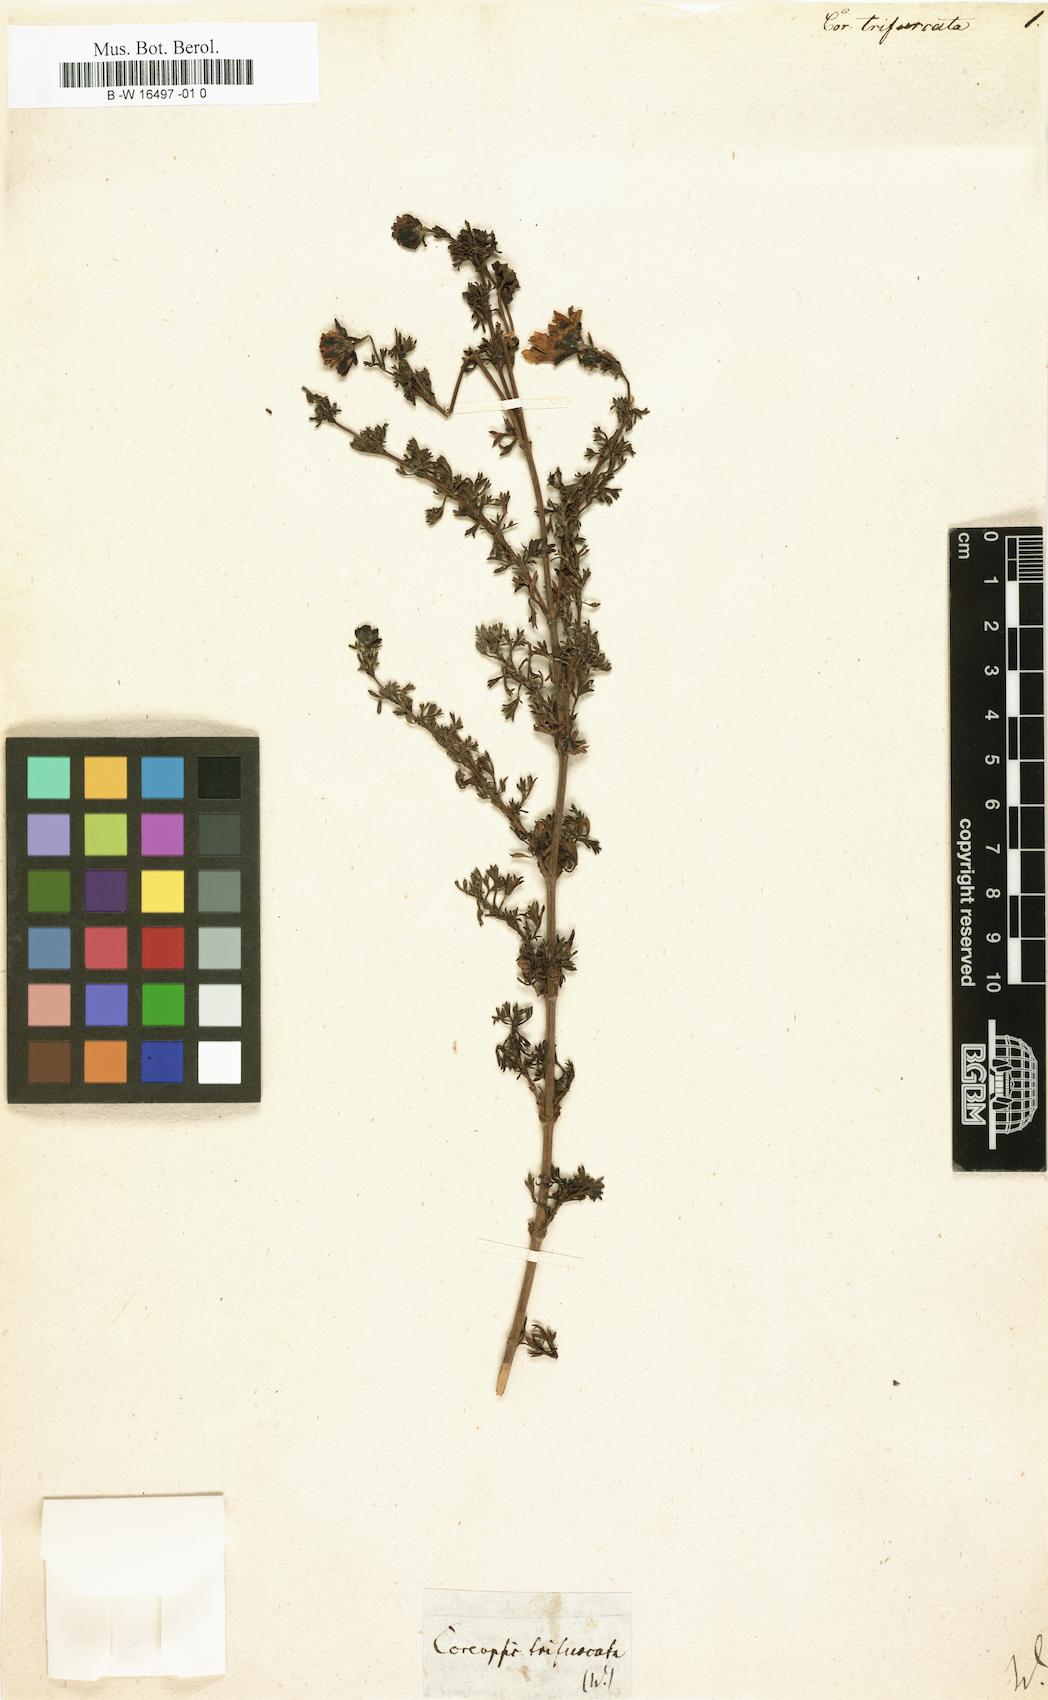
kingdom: Plantae
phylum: Tracheophyta
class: Magnoliopsida
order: Asterales
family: Asteraceae
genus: Coreopsis
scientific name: Coreopsis
